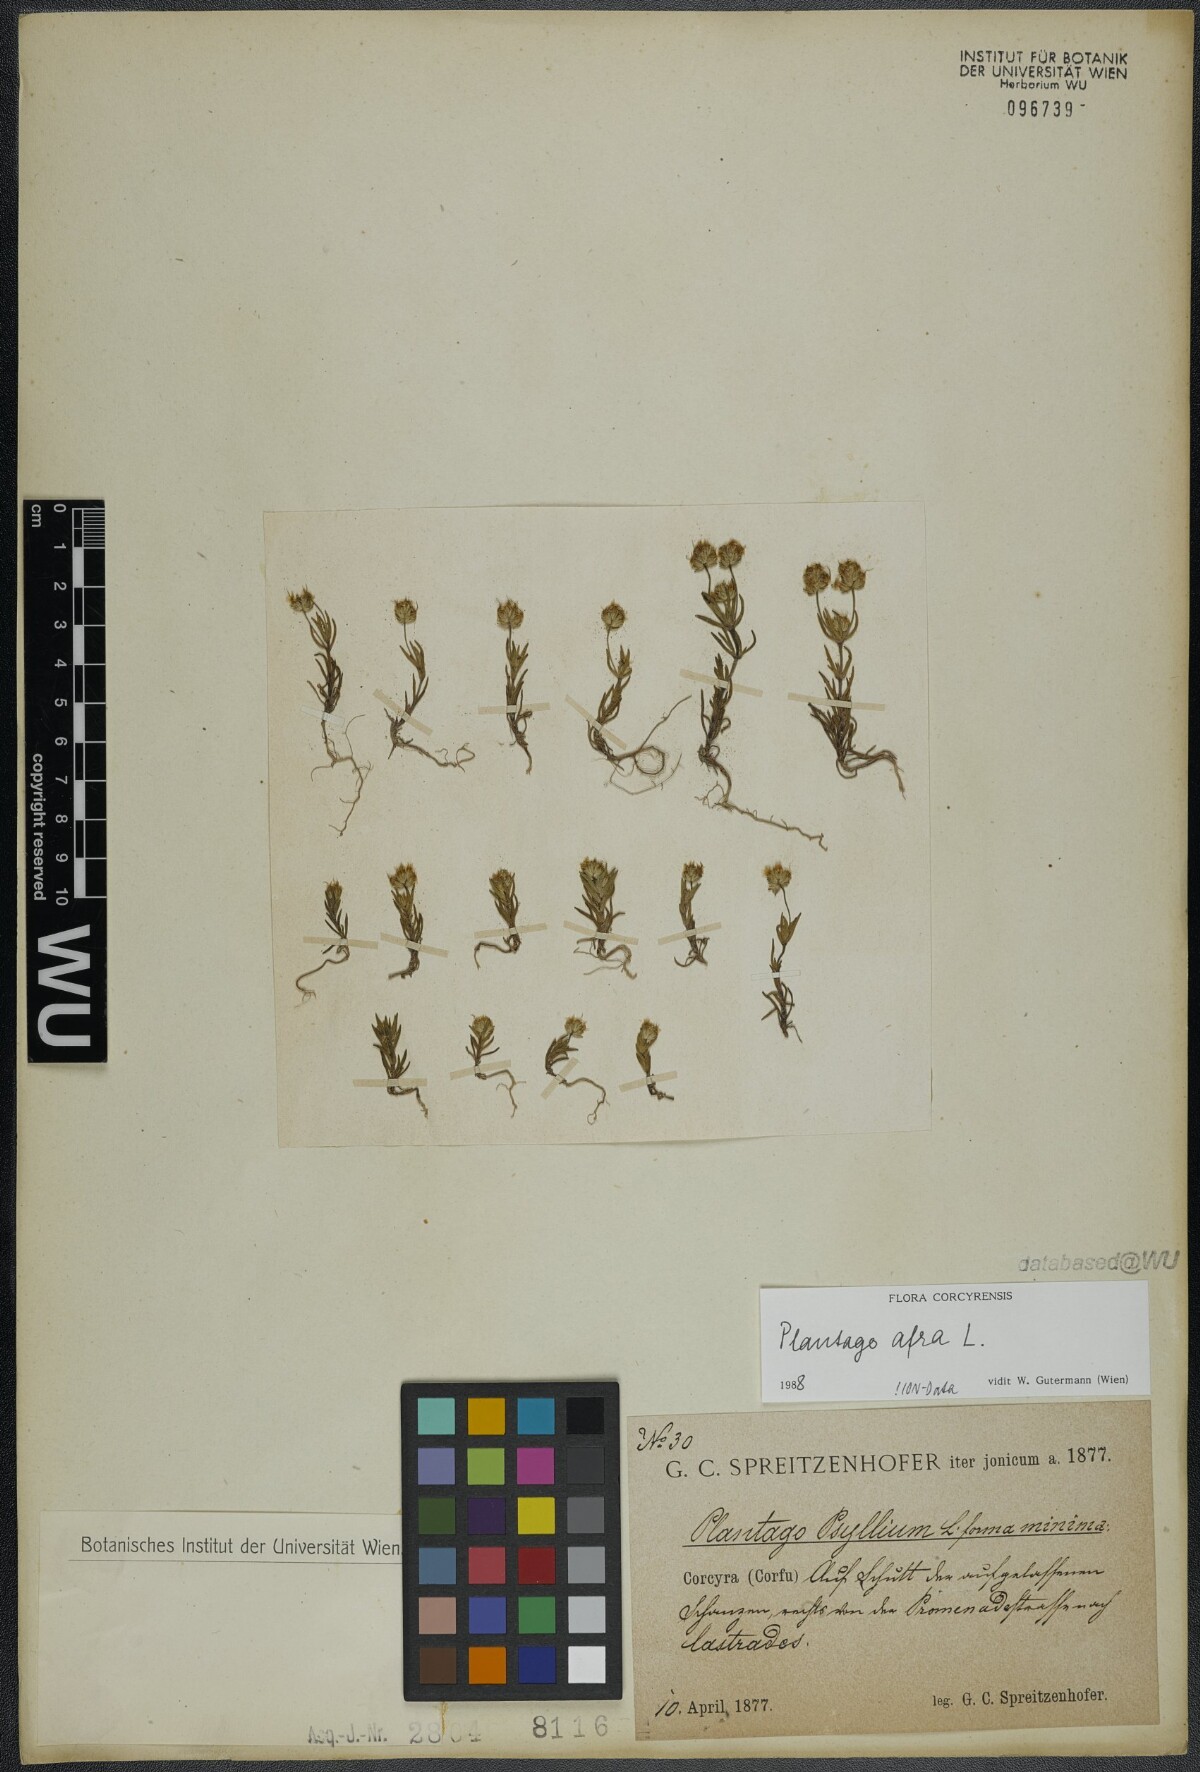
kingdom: Plantae
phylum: Tracheophyta
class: Magnoliopsida
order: Lamiales
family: Plantaginaceae
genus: Plantago
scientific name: Plantago afra
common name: Glandular plantain
